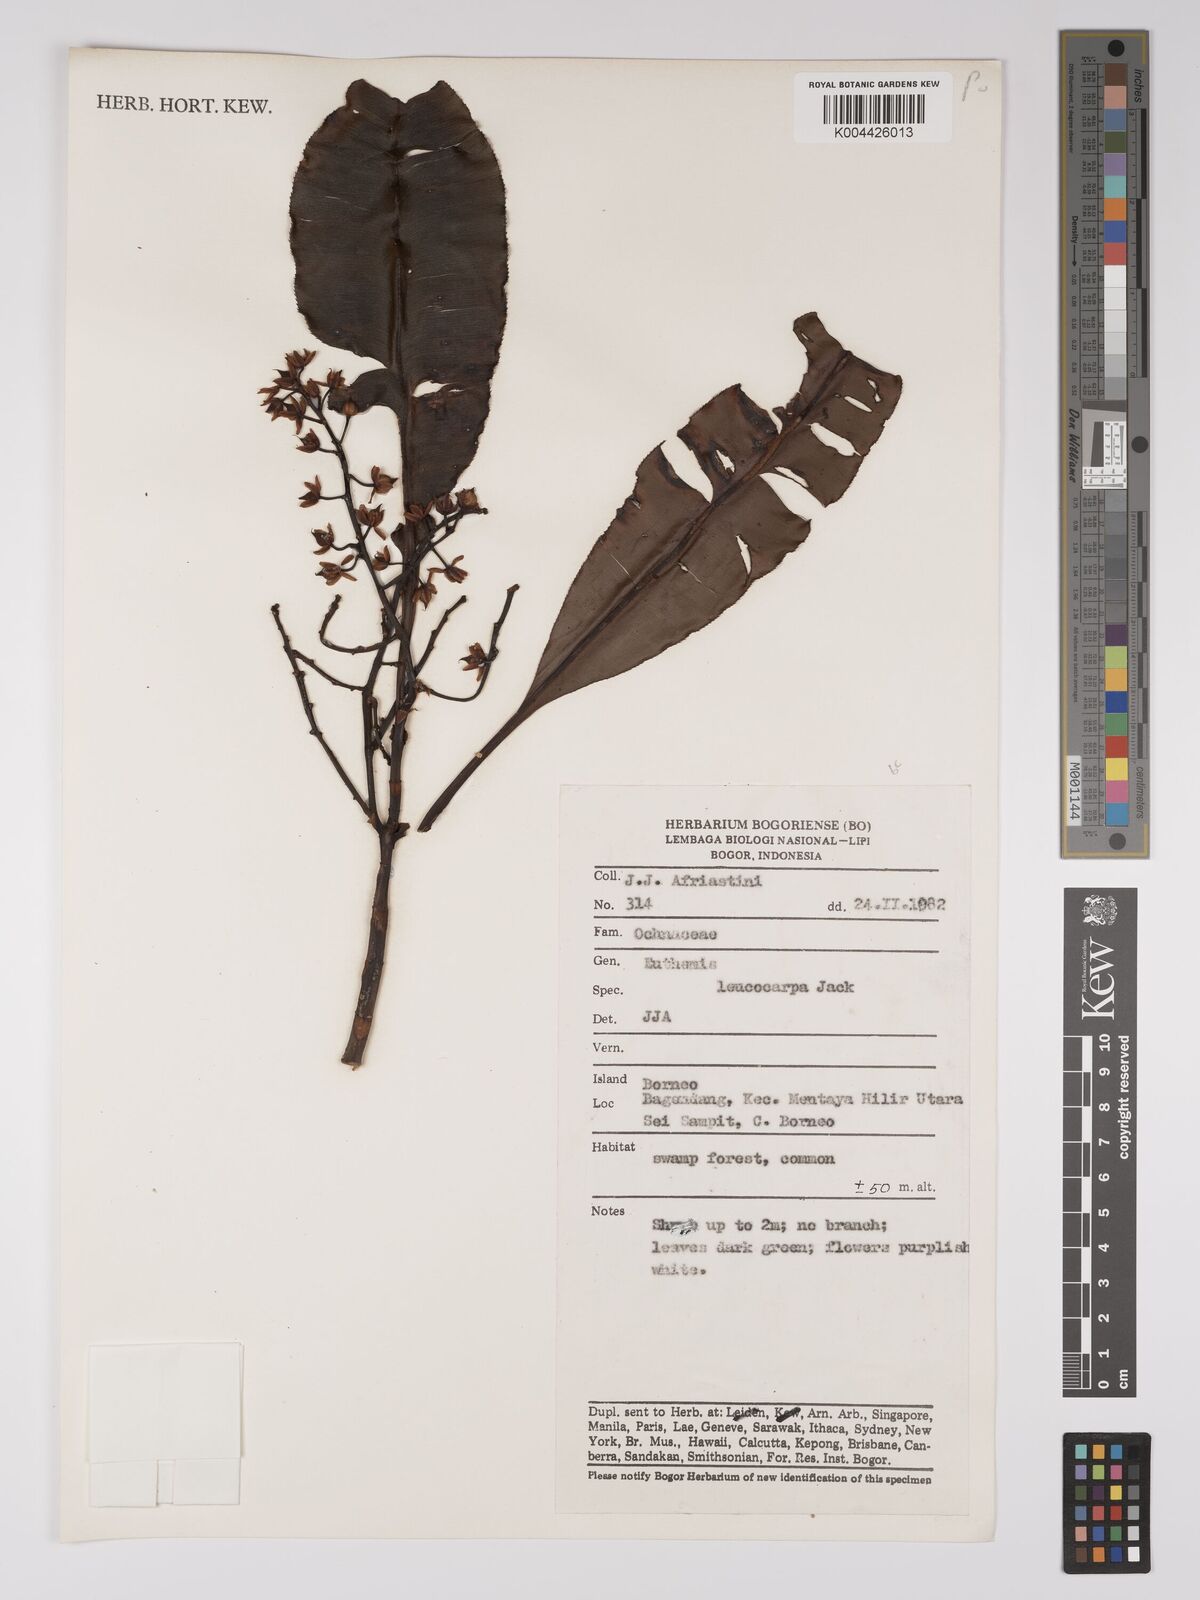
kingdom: Plantae
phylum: Tracheophyta
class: Magnoliopsida
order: Malpighiales
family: Ochnaceae
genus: Euthemis
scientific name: Euthemis leucocarpa
